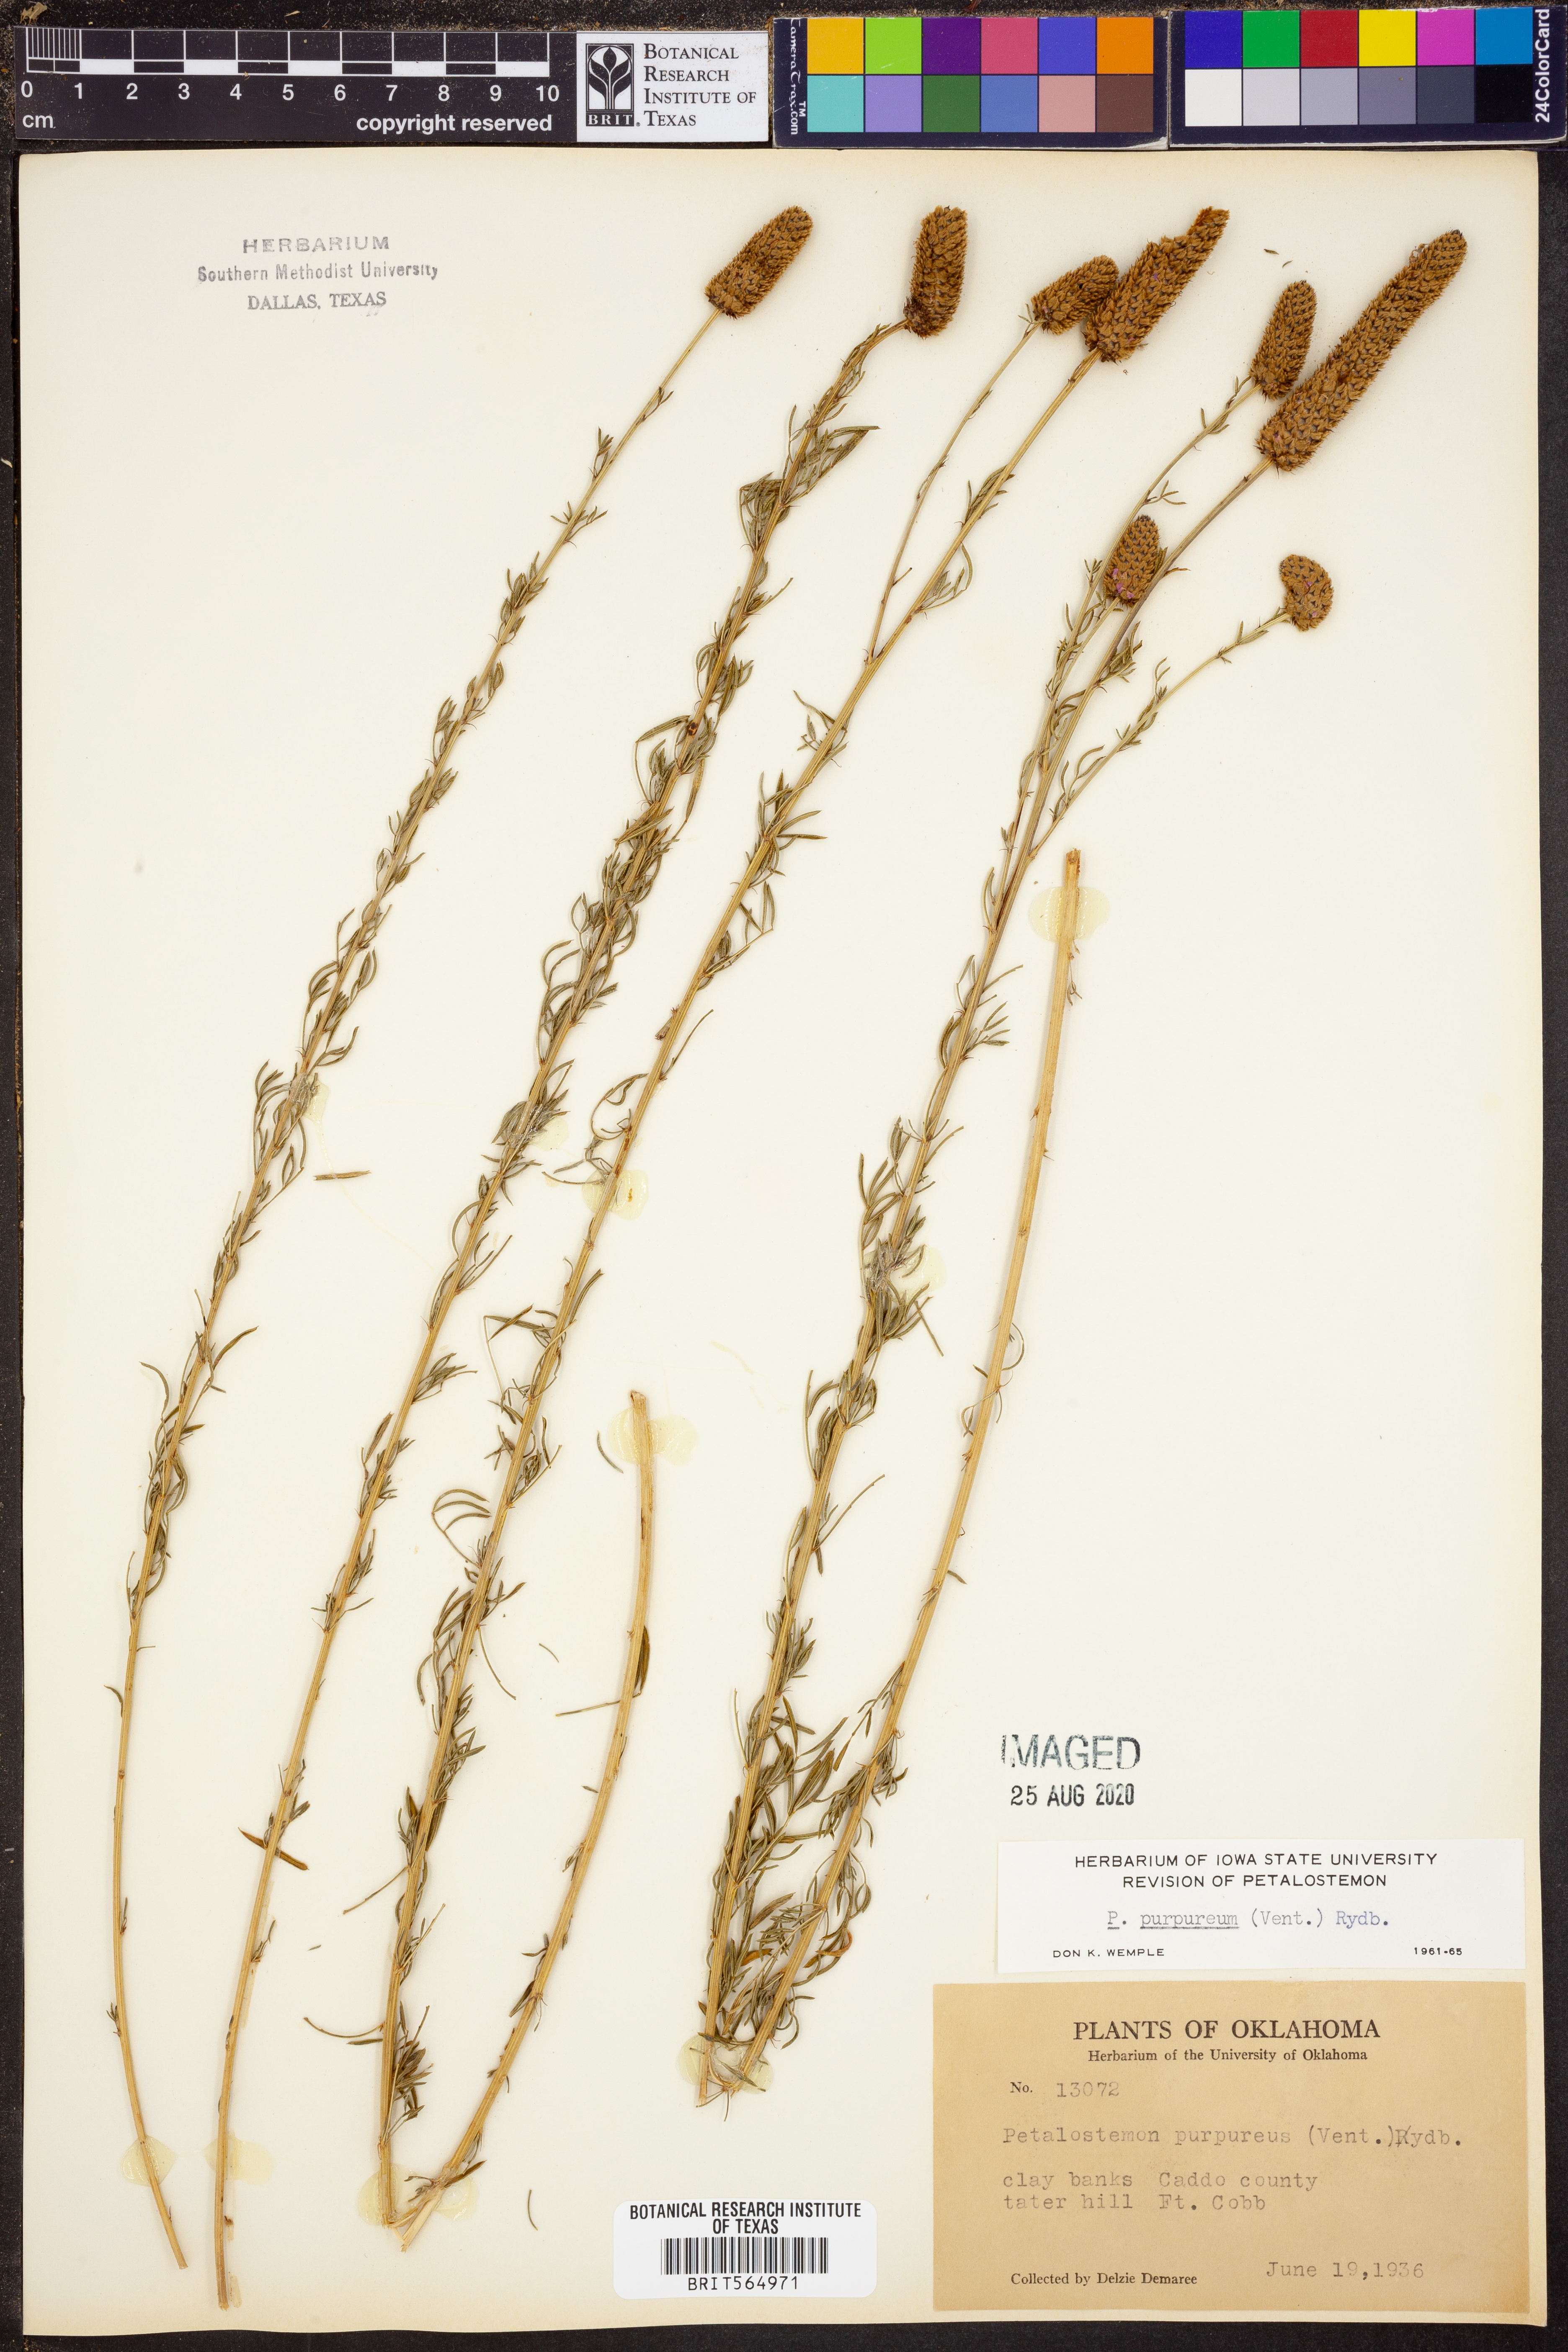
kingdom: Plantae
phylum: Tracheophyta
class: Magnoliopsida
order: Fabales
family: Fabaceae
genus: Dalea
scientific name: Dalea purpurea
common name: Purple prairie-clover
